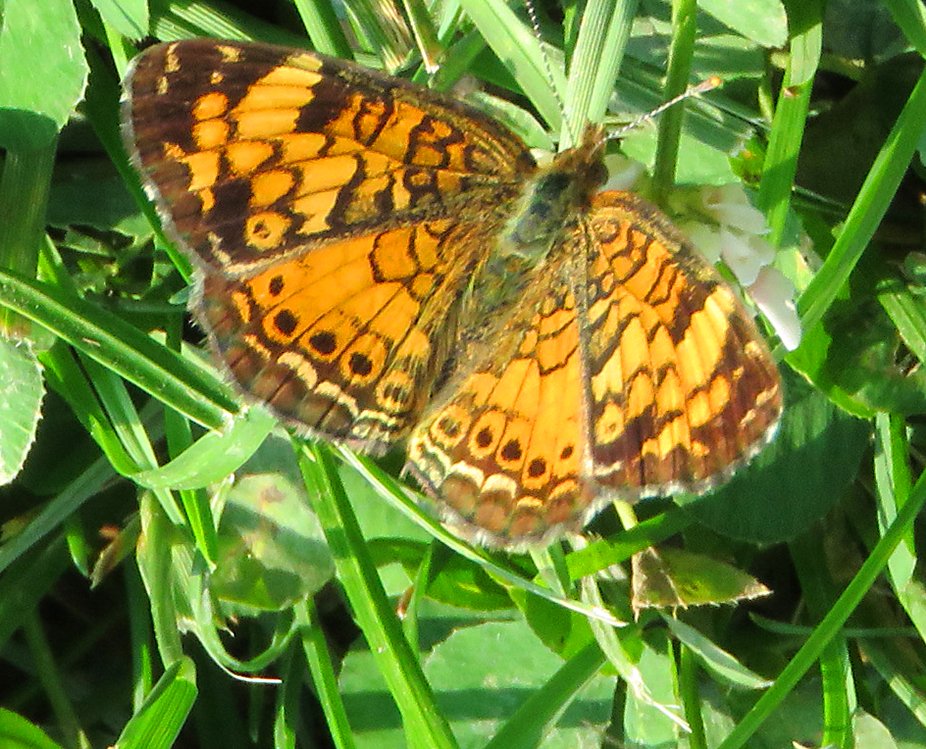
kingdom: Animalia
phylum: Arthropoda
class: Insecta
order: Lepidoptera
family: Nymphalidae
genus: Phyciodes
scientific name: Phyciodes tharos
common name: Northern Crescent
